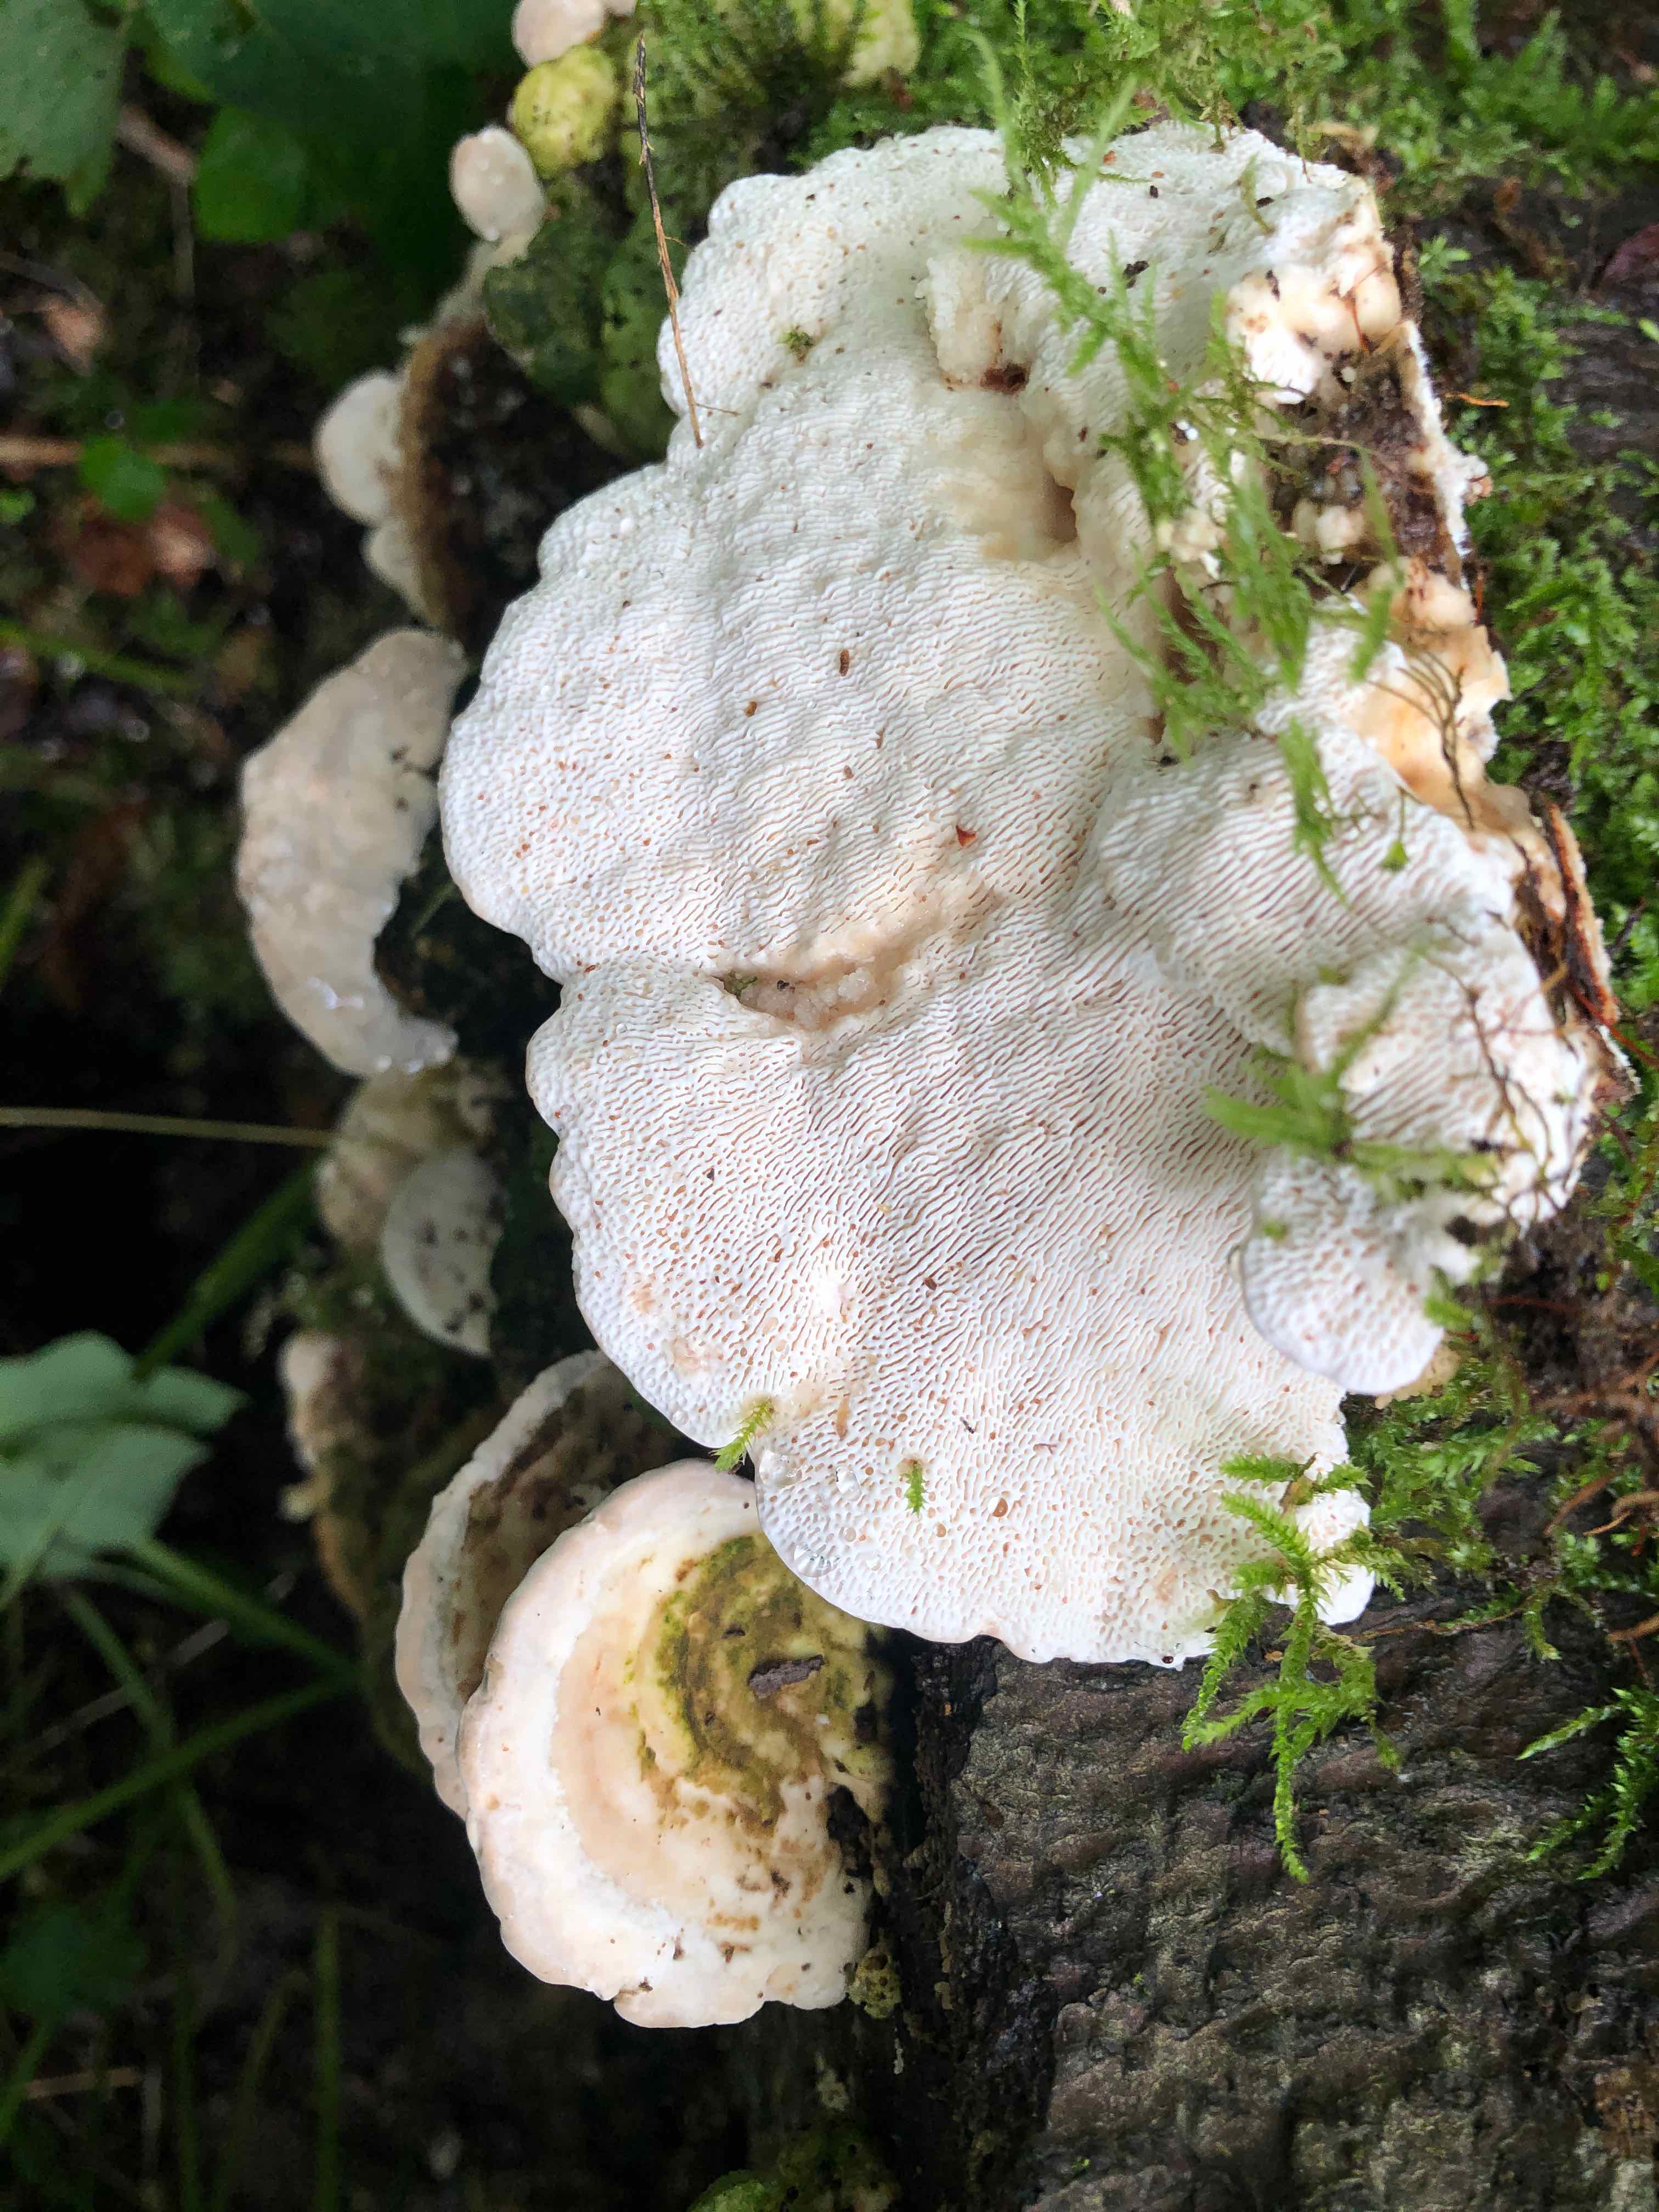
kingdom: Fungi
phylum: Basidiomycota
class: Agaricomycetes
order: Polyporales
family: Polyporaceae
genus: Trametes
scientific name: Trametes gibbosa
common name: puklet læderporesvamp
